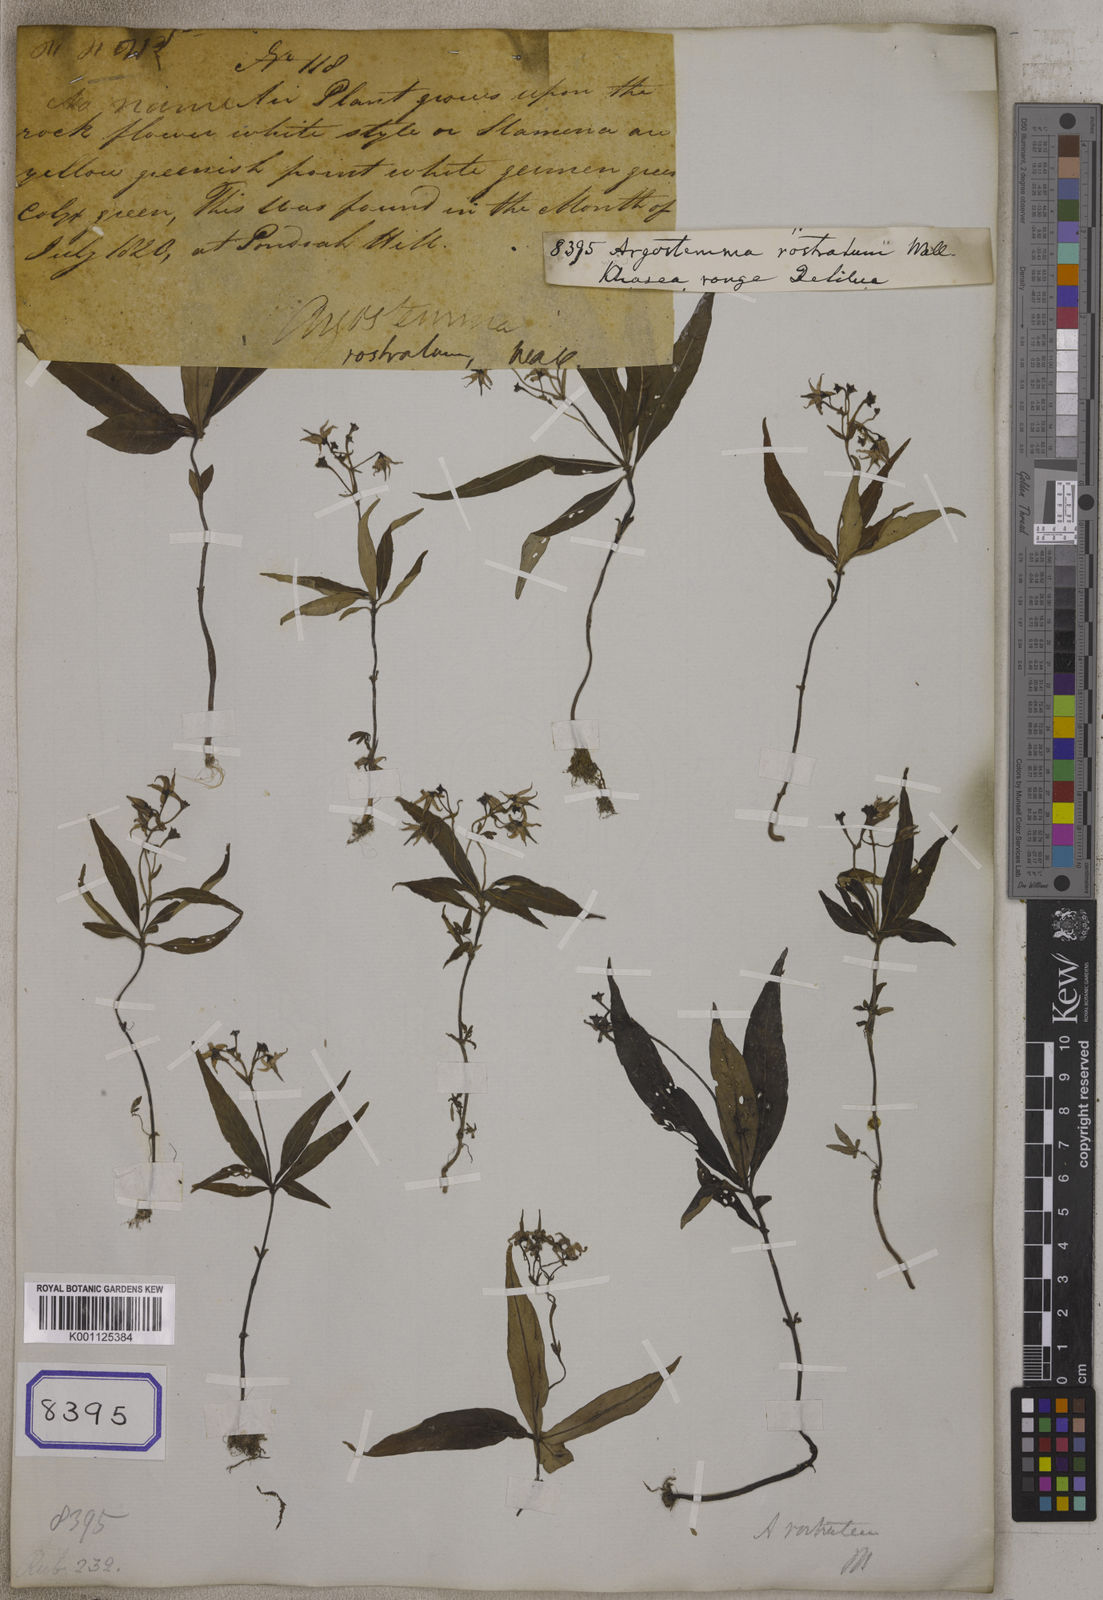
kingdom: Plantae
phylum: Tracheophyta
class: Magnoliopsida
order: Gentianales
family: Rubiaceae
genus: Argostemma
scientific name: Argostemma rostratum
